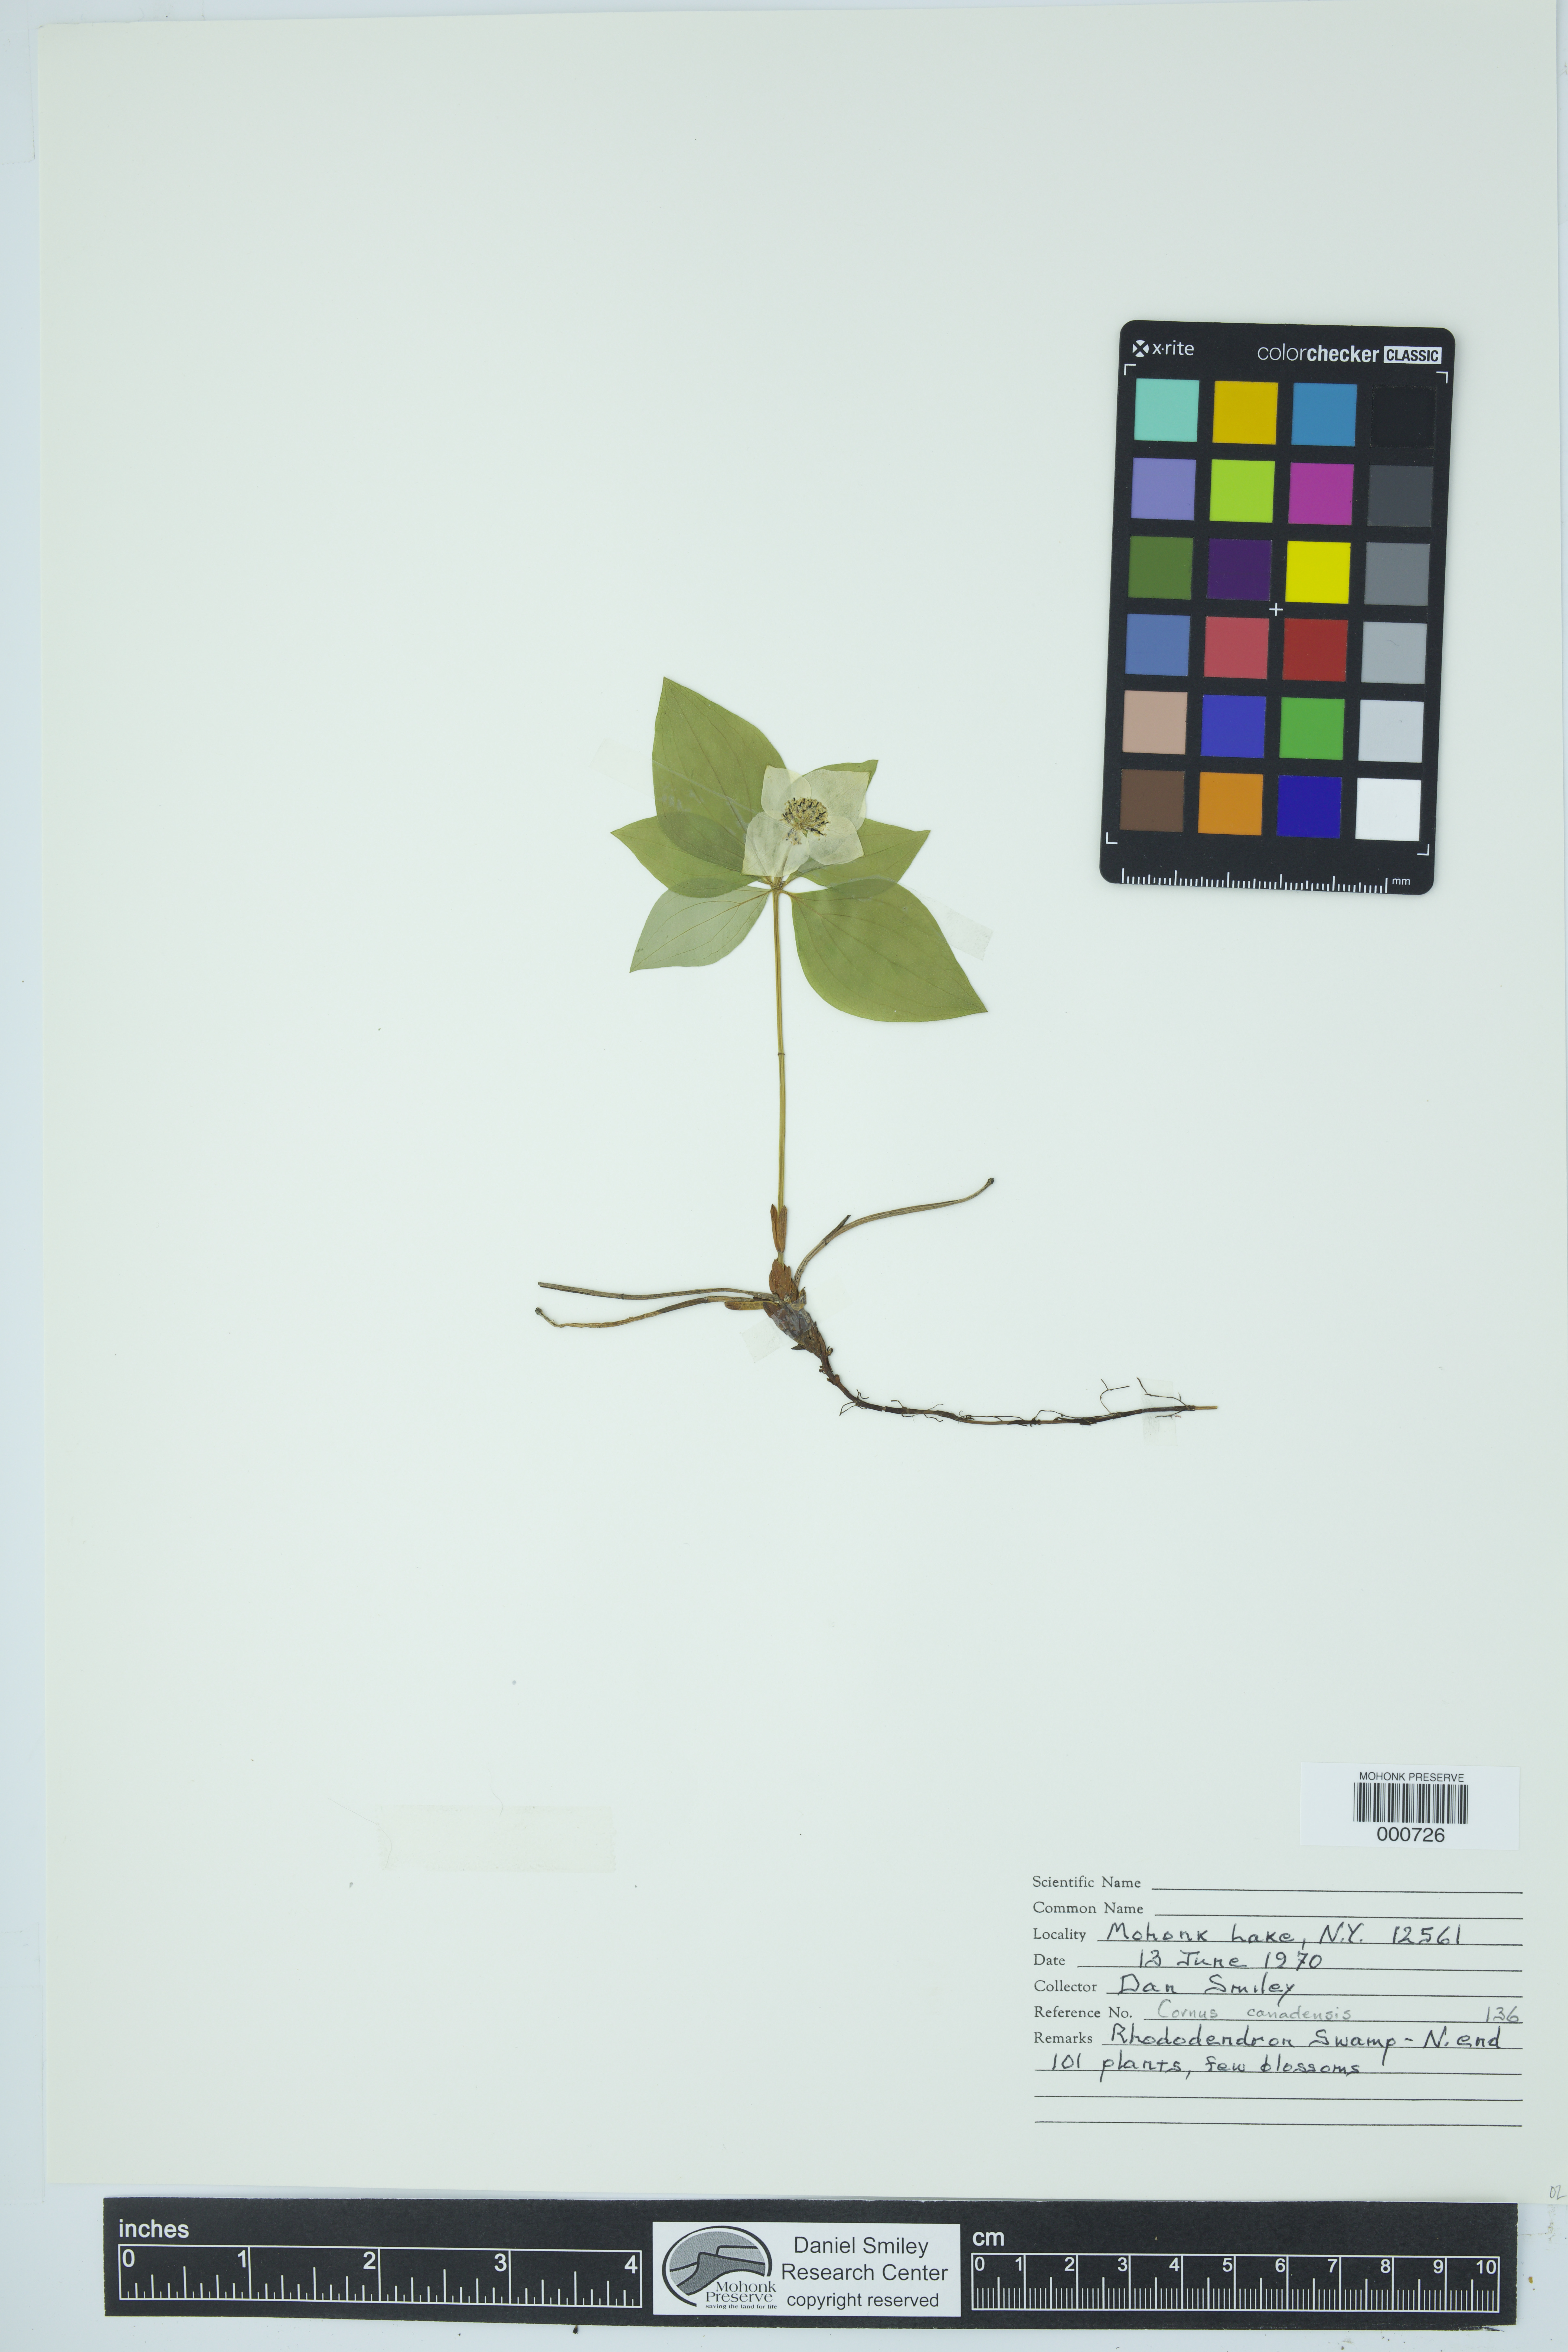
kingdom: Plantae
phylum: Tracheophyta
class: Magnoliopsida
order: Cornales
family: Cornaceae
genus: Cornus
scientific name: Cornus canadensis
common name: Creeping dogwood
